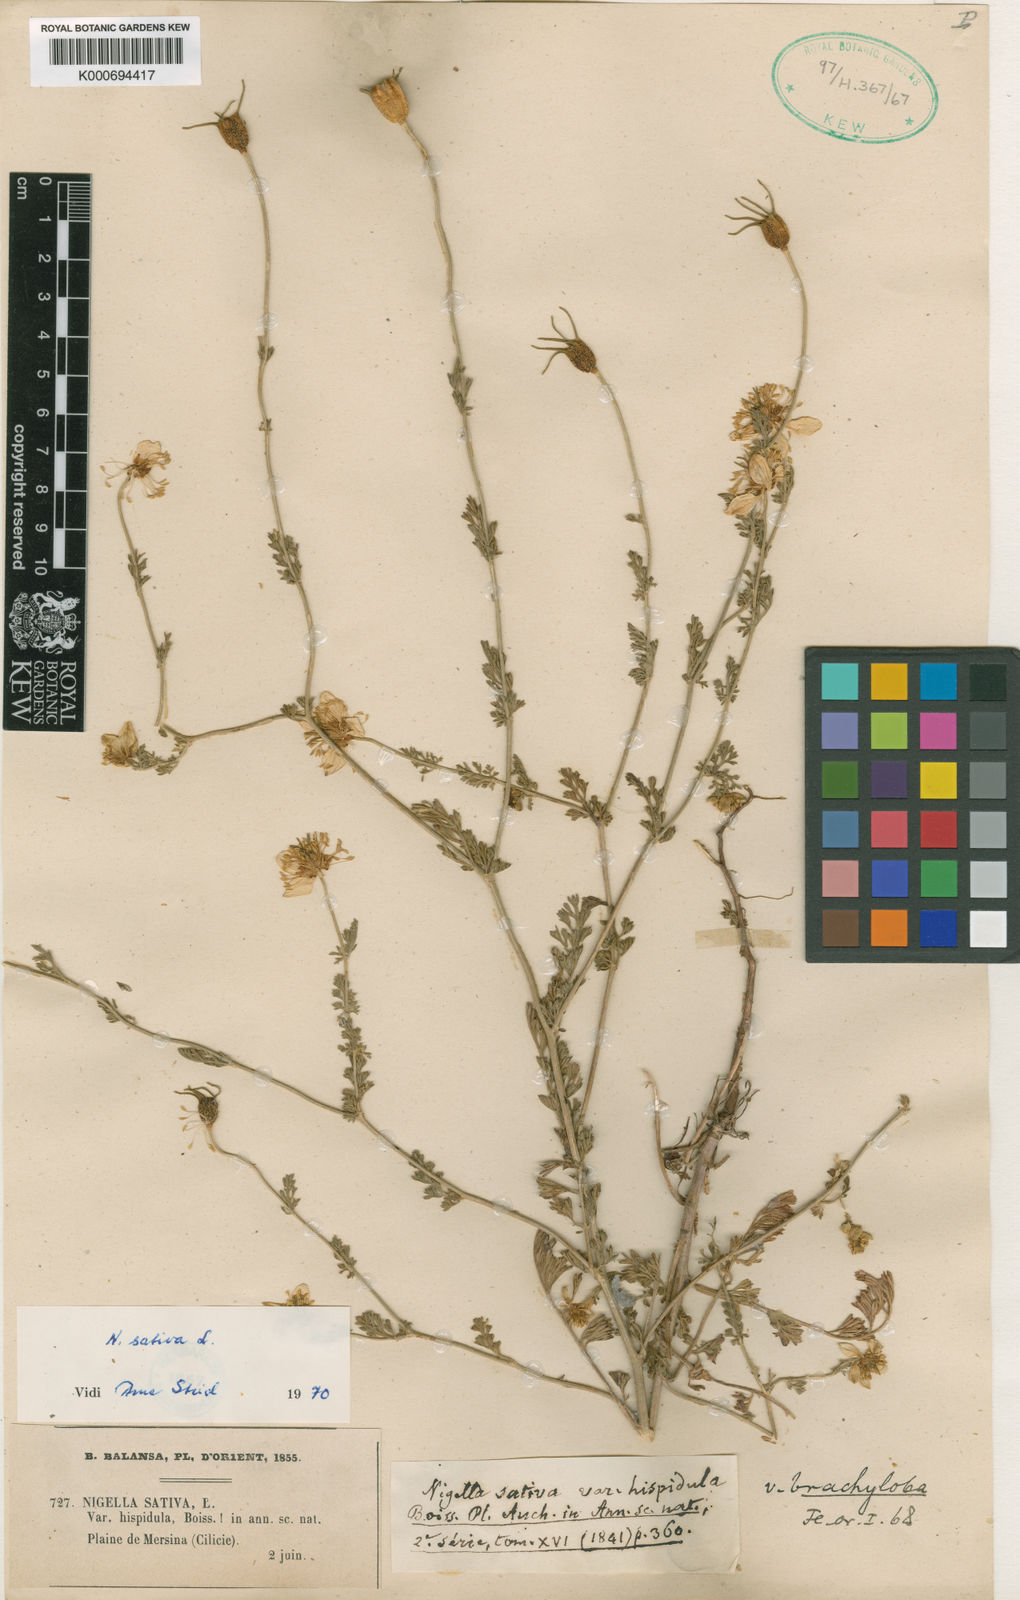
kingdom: Plantae
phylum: Tracheophyta
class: Magnoliopsida
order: Ranunculales
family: Ranunculaceae
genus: Nigella
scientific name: Nigella sativa
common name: Black-cumin
